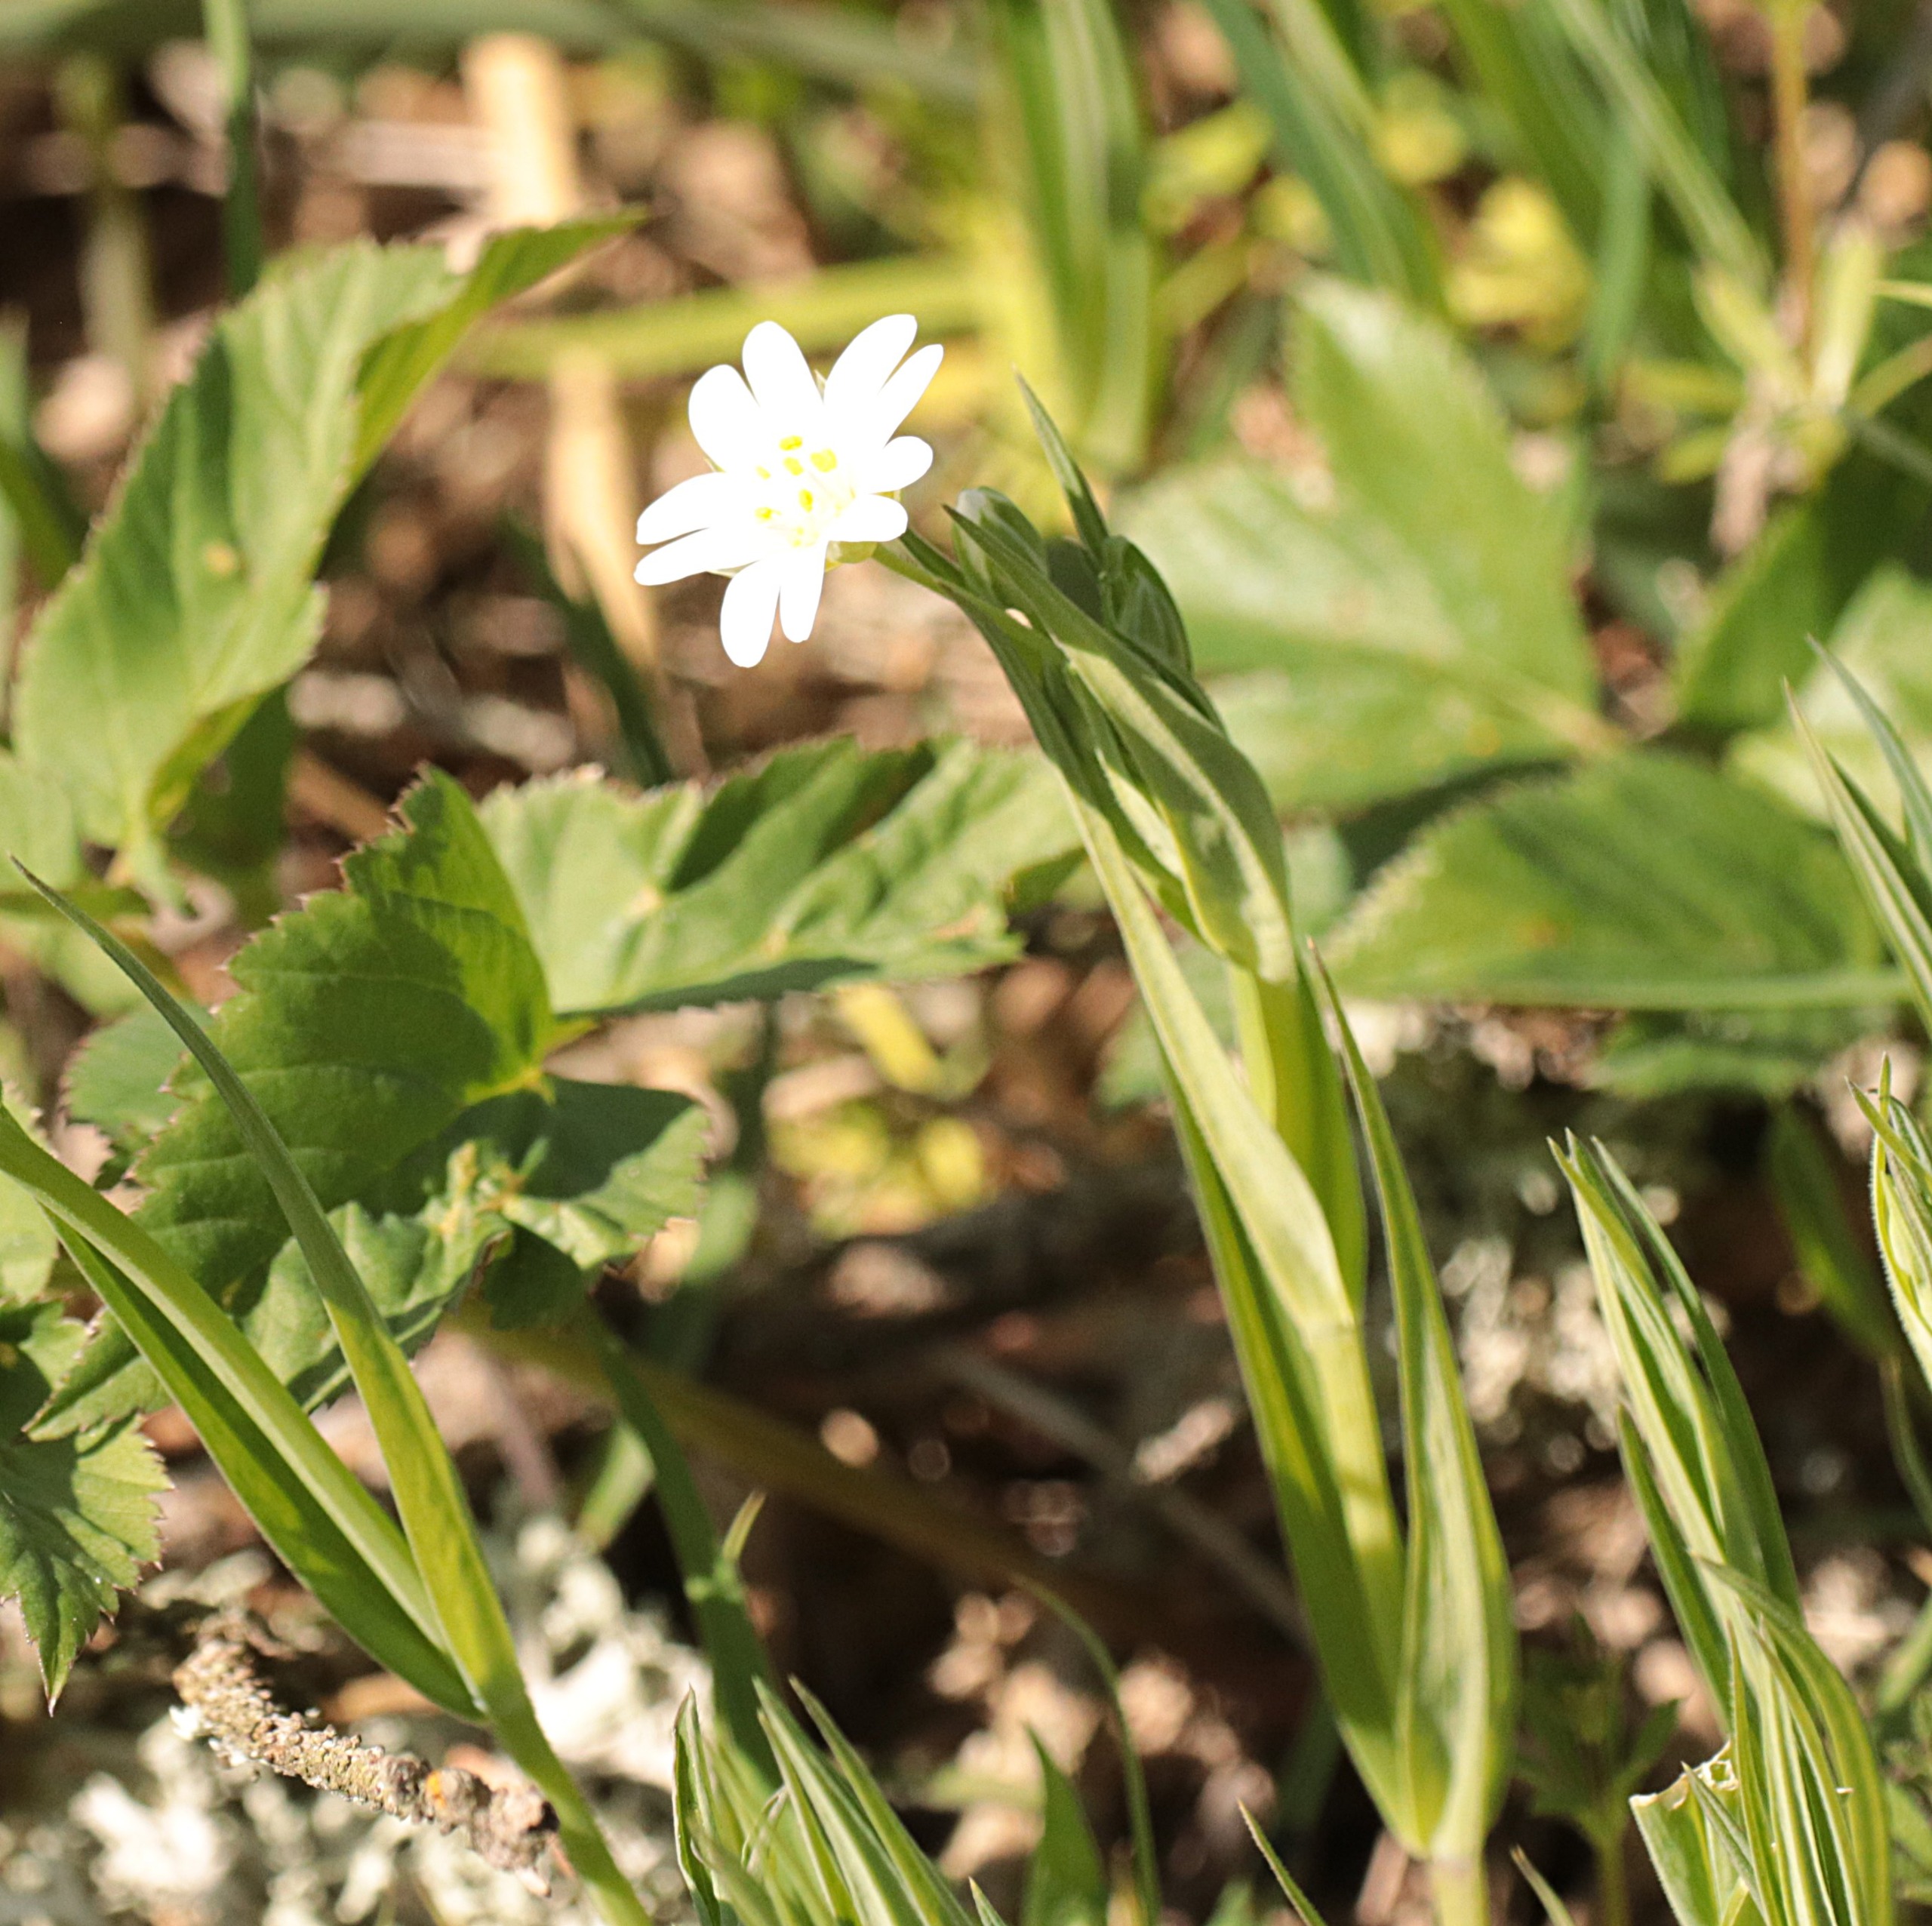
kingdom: Plantae
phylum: Tracheophyta
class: Magnoliopsida
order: Caryophyllales
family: Caryophyllaceae
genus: Rabelera
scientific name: Rabelera holostea
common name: Stor fladstjerne
